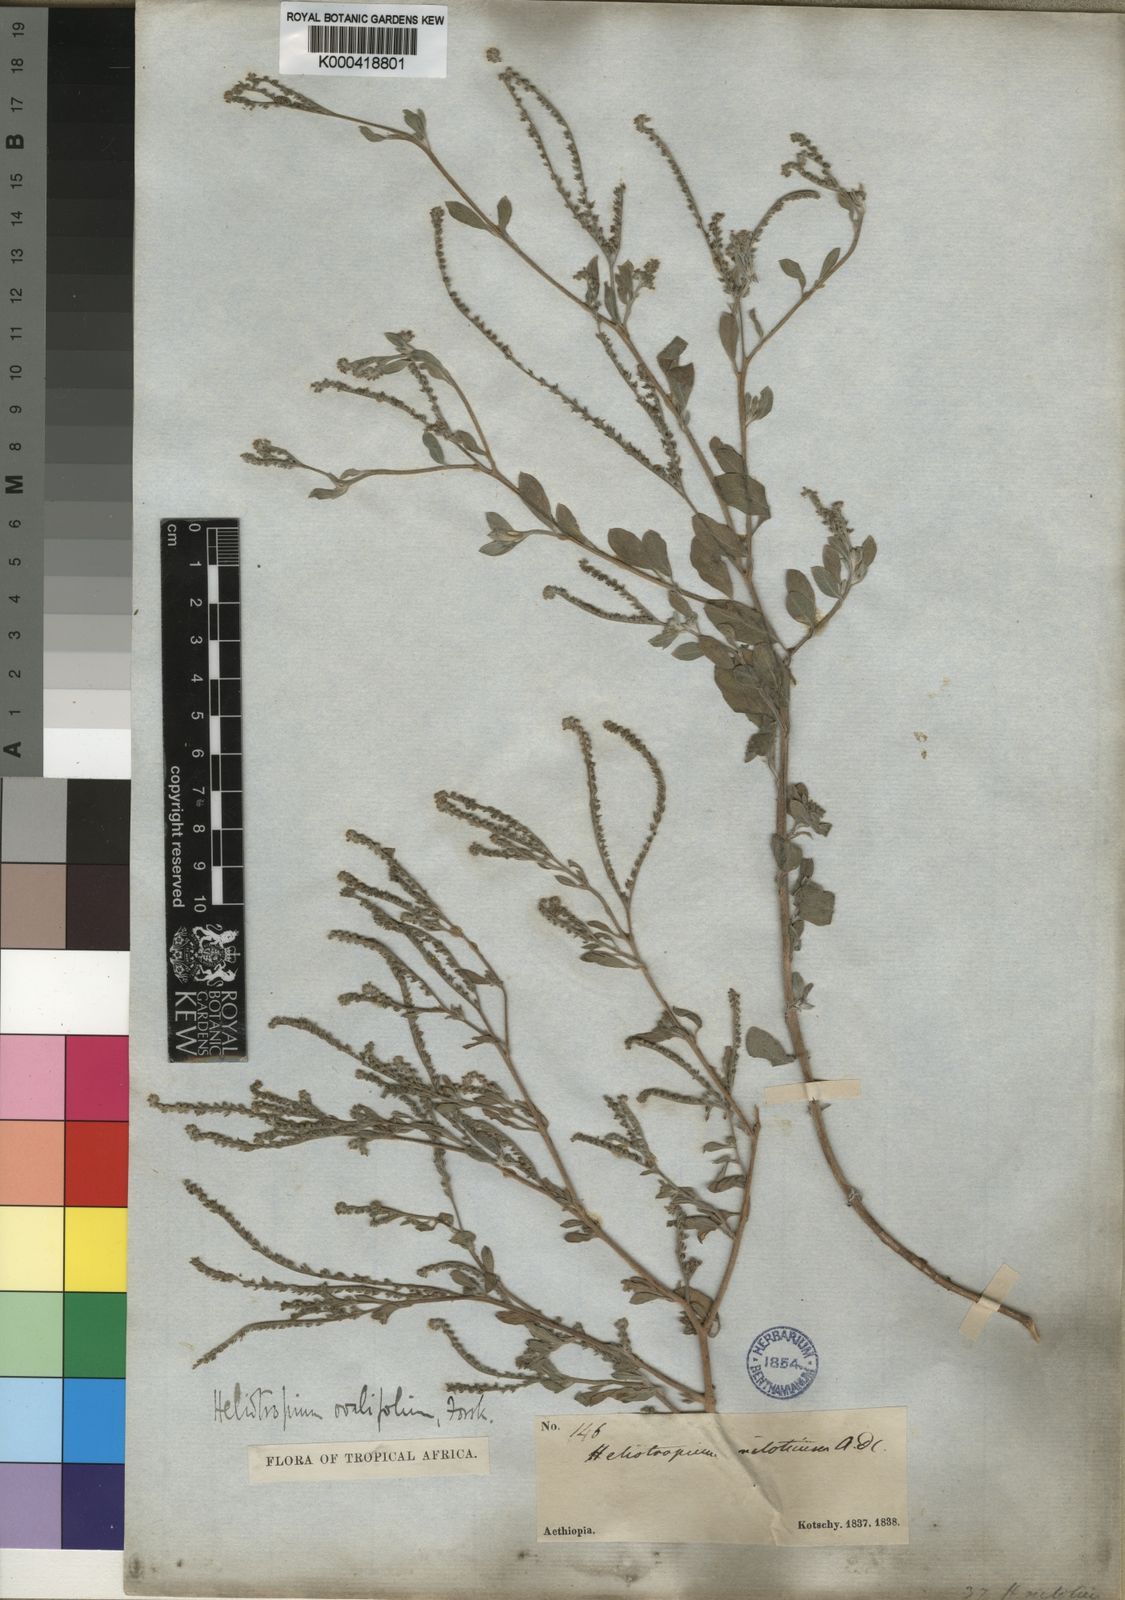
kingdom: Plantae
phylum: Tracheophyta
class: Magnoliopsida
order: Boraginales
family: Heliotropiaceae
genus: Euploca
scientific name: Euploca ovalifolia
